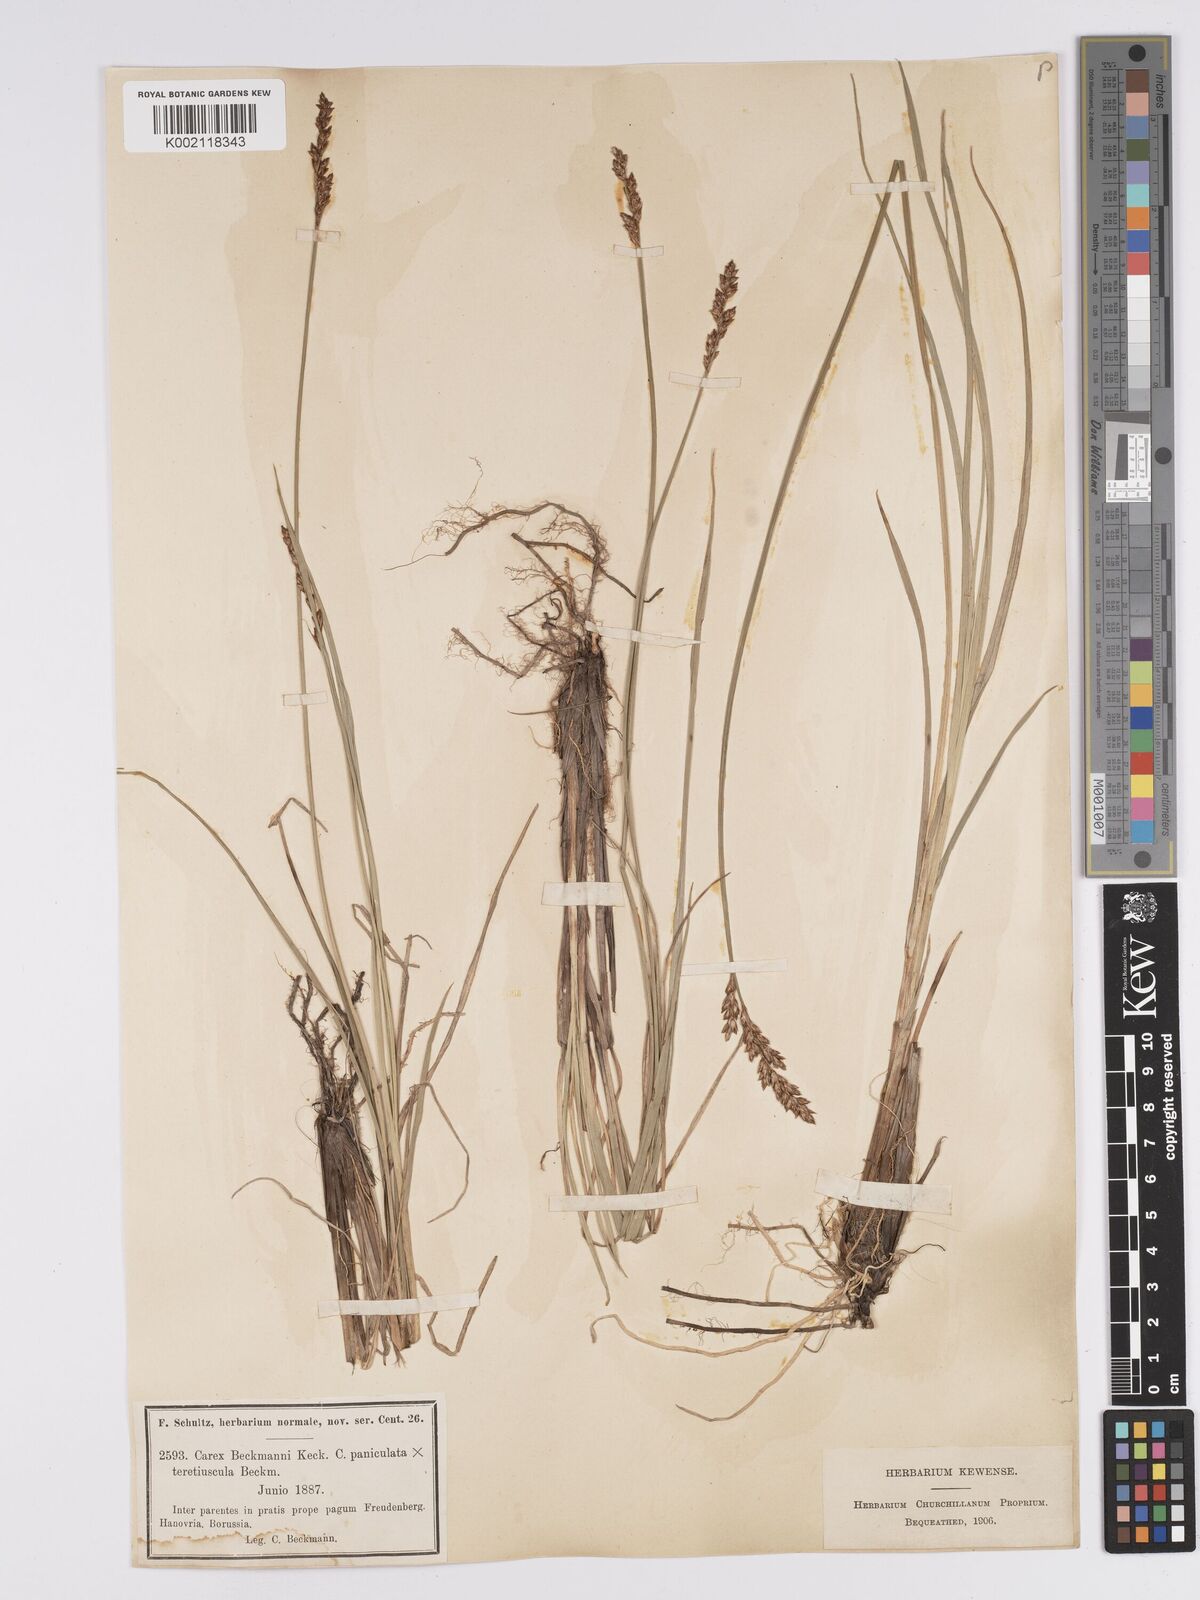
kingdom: Plantae
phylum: Tracheophyta
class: Liliopsida
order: Poales
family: Cyperaceae
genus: Carex
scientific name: Carex paniculata
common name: Greater tussock-sedge
